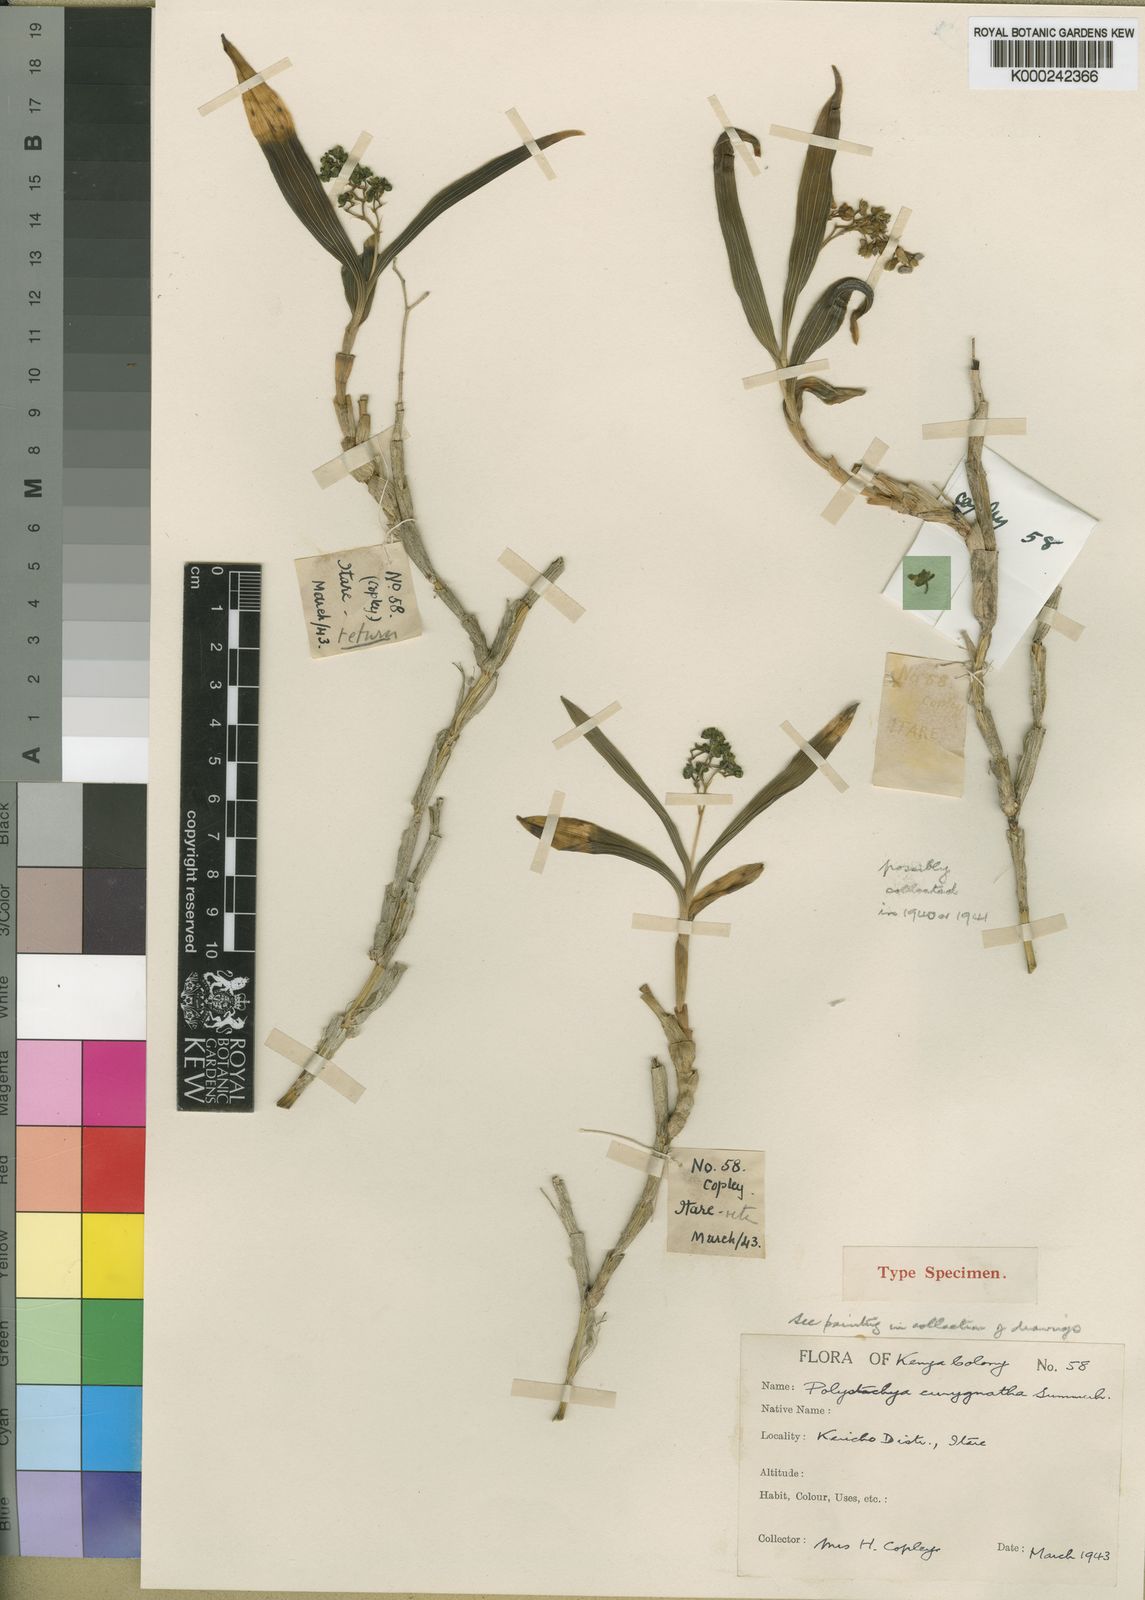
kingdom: Plantae
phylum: Tracheophyta
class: Liliopsida
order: Asparagales
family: Orchidaceae
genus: Polystachya
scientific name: Polystachya eurygnatha
